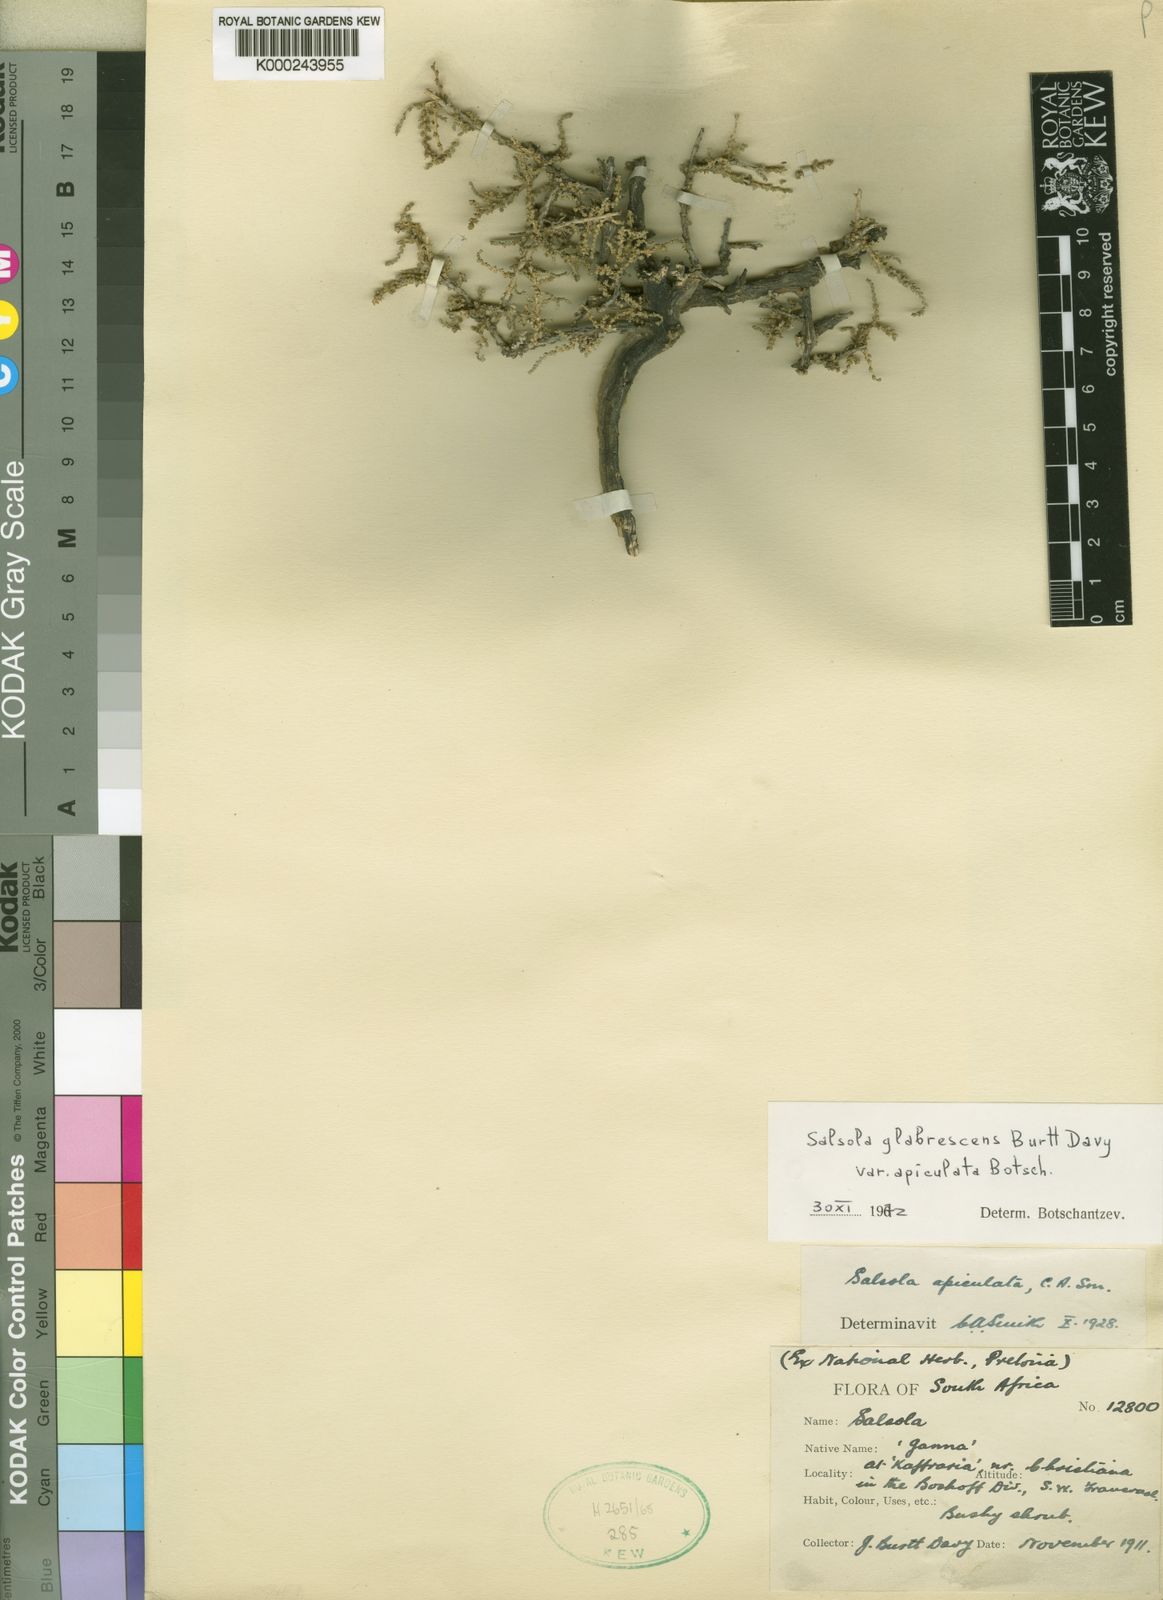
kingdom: Plantae
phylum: Tracheophyta
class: Magnoliopsida
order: Caryophyllales
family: Amaranthaceae
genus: Caroxylon
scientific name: Caroxylon glabrescens
